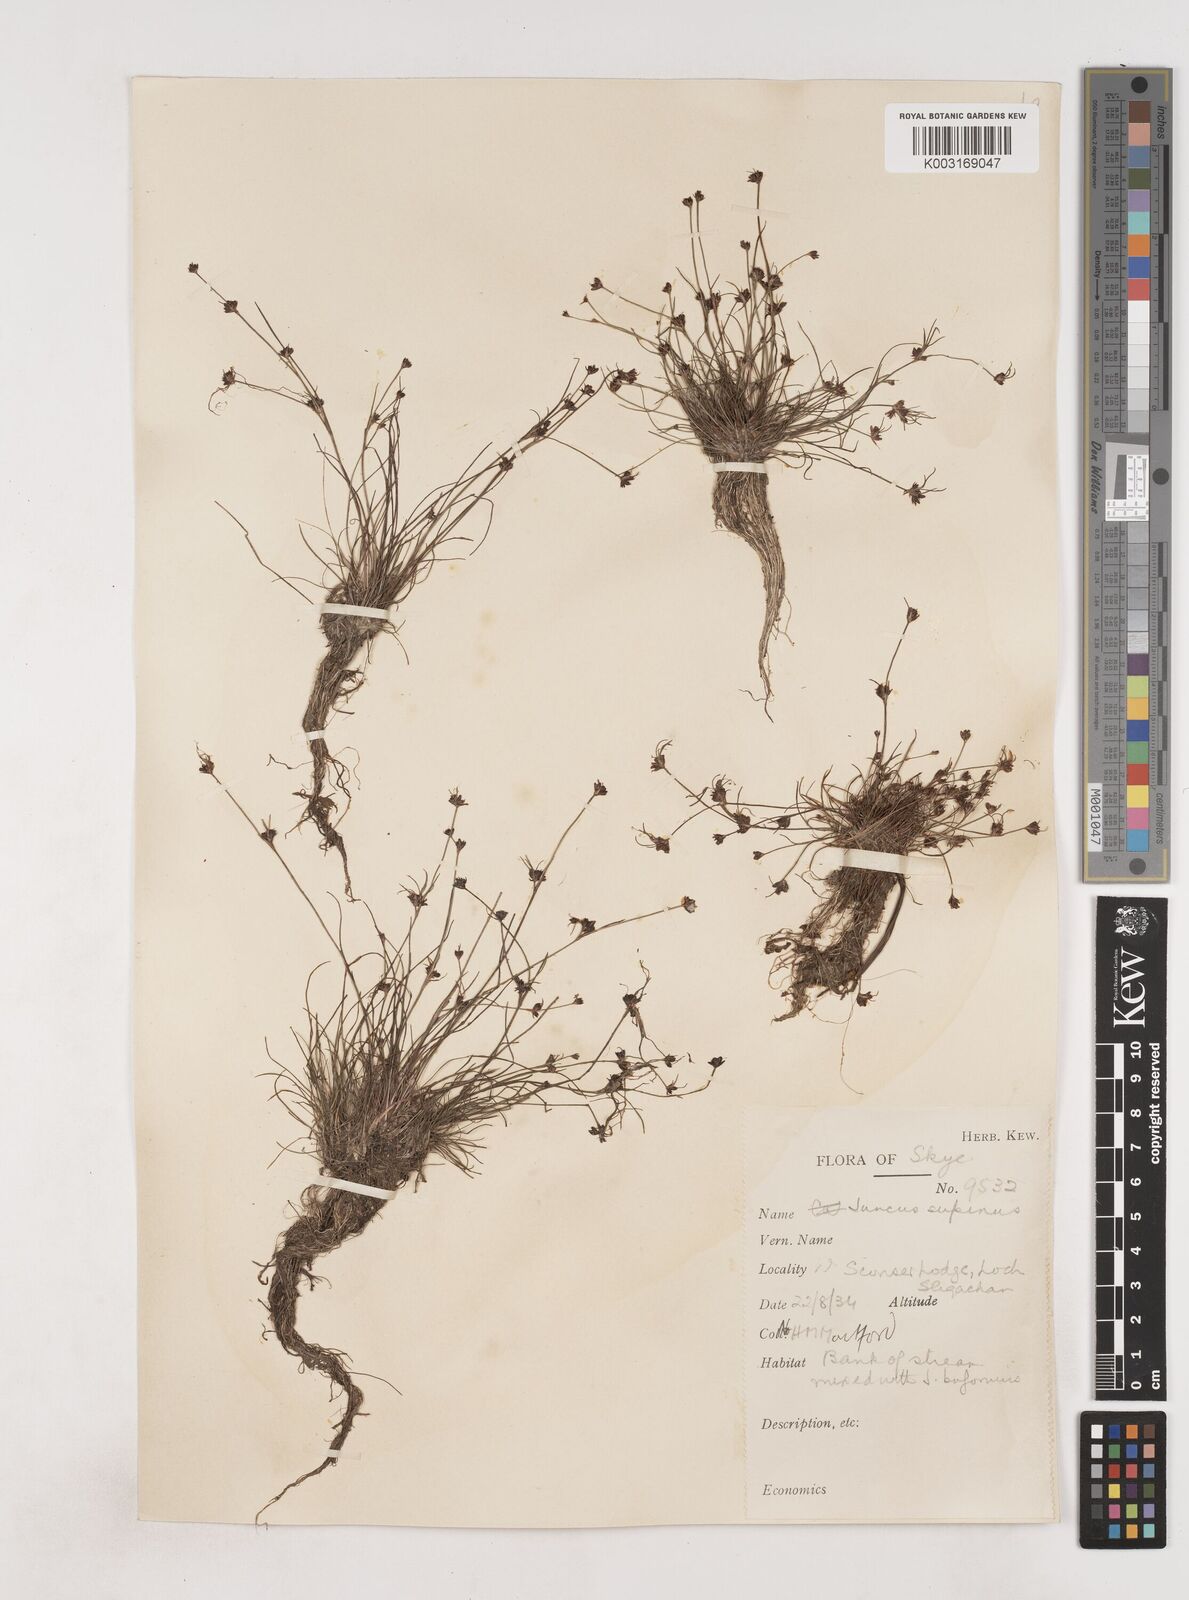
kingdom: Plantae
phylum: Tracheophyta
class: Liliopsida
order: Poales
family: Juncaceae
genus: Juncus
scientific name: Juncus bulbosus
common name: Bulbous rush
